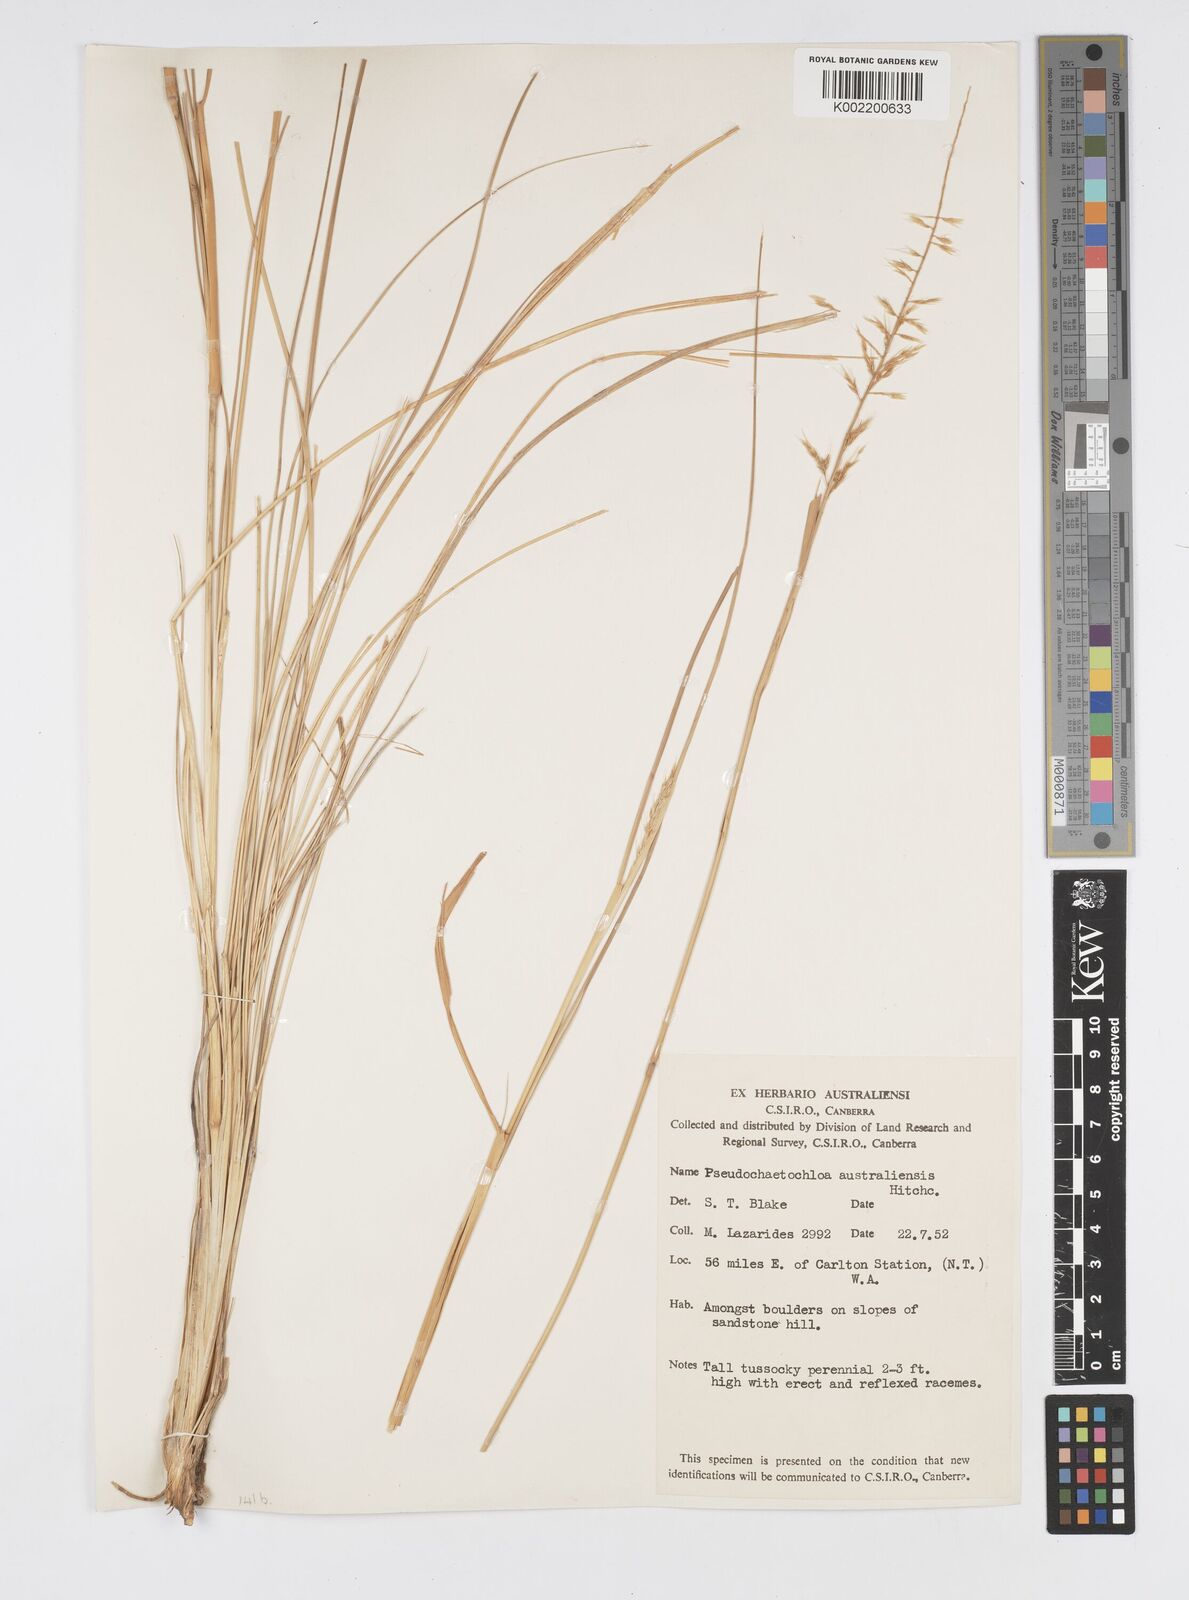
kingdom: Plantae
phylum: Tracheophyta
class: Liliopsida
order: Poales
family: Poaceae
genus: Cenchrus
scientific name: Cenchrus arnhemicus
